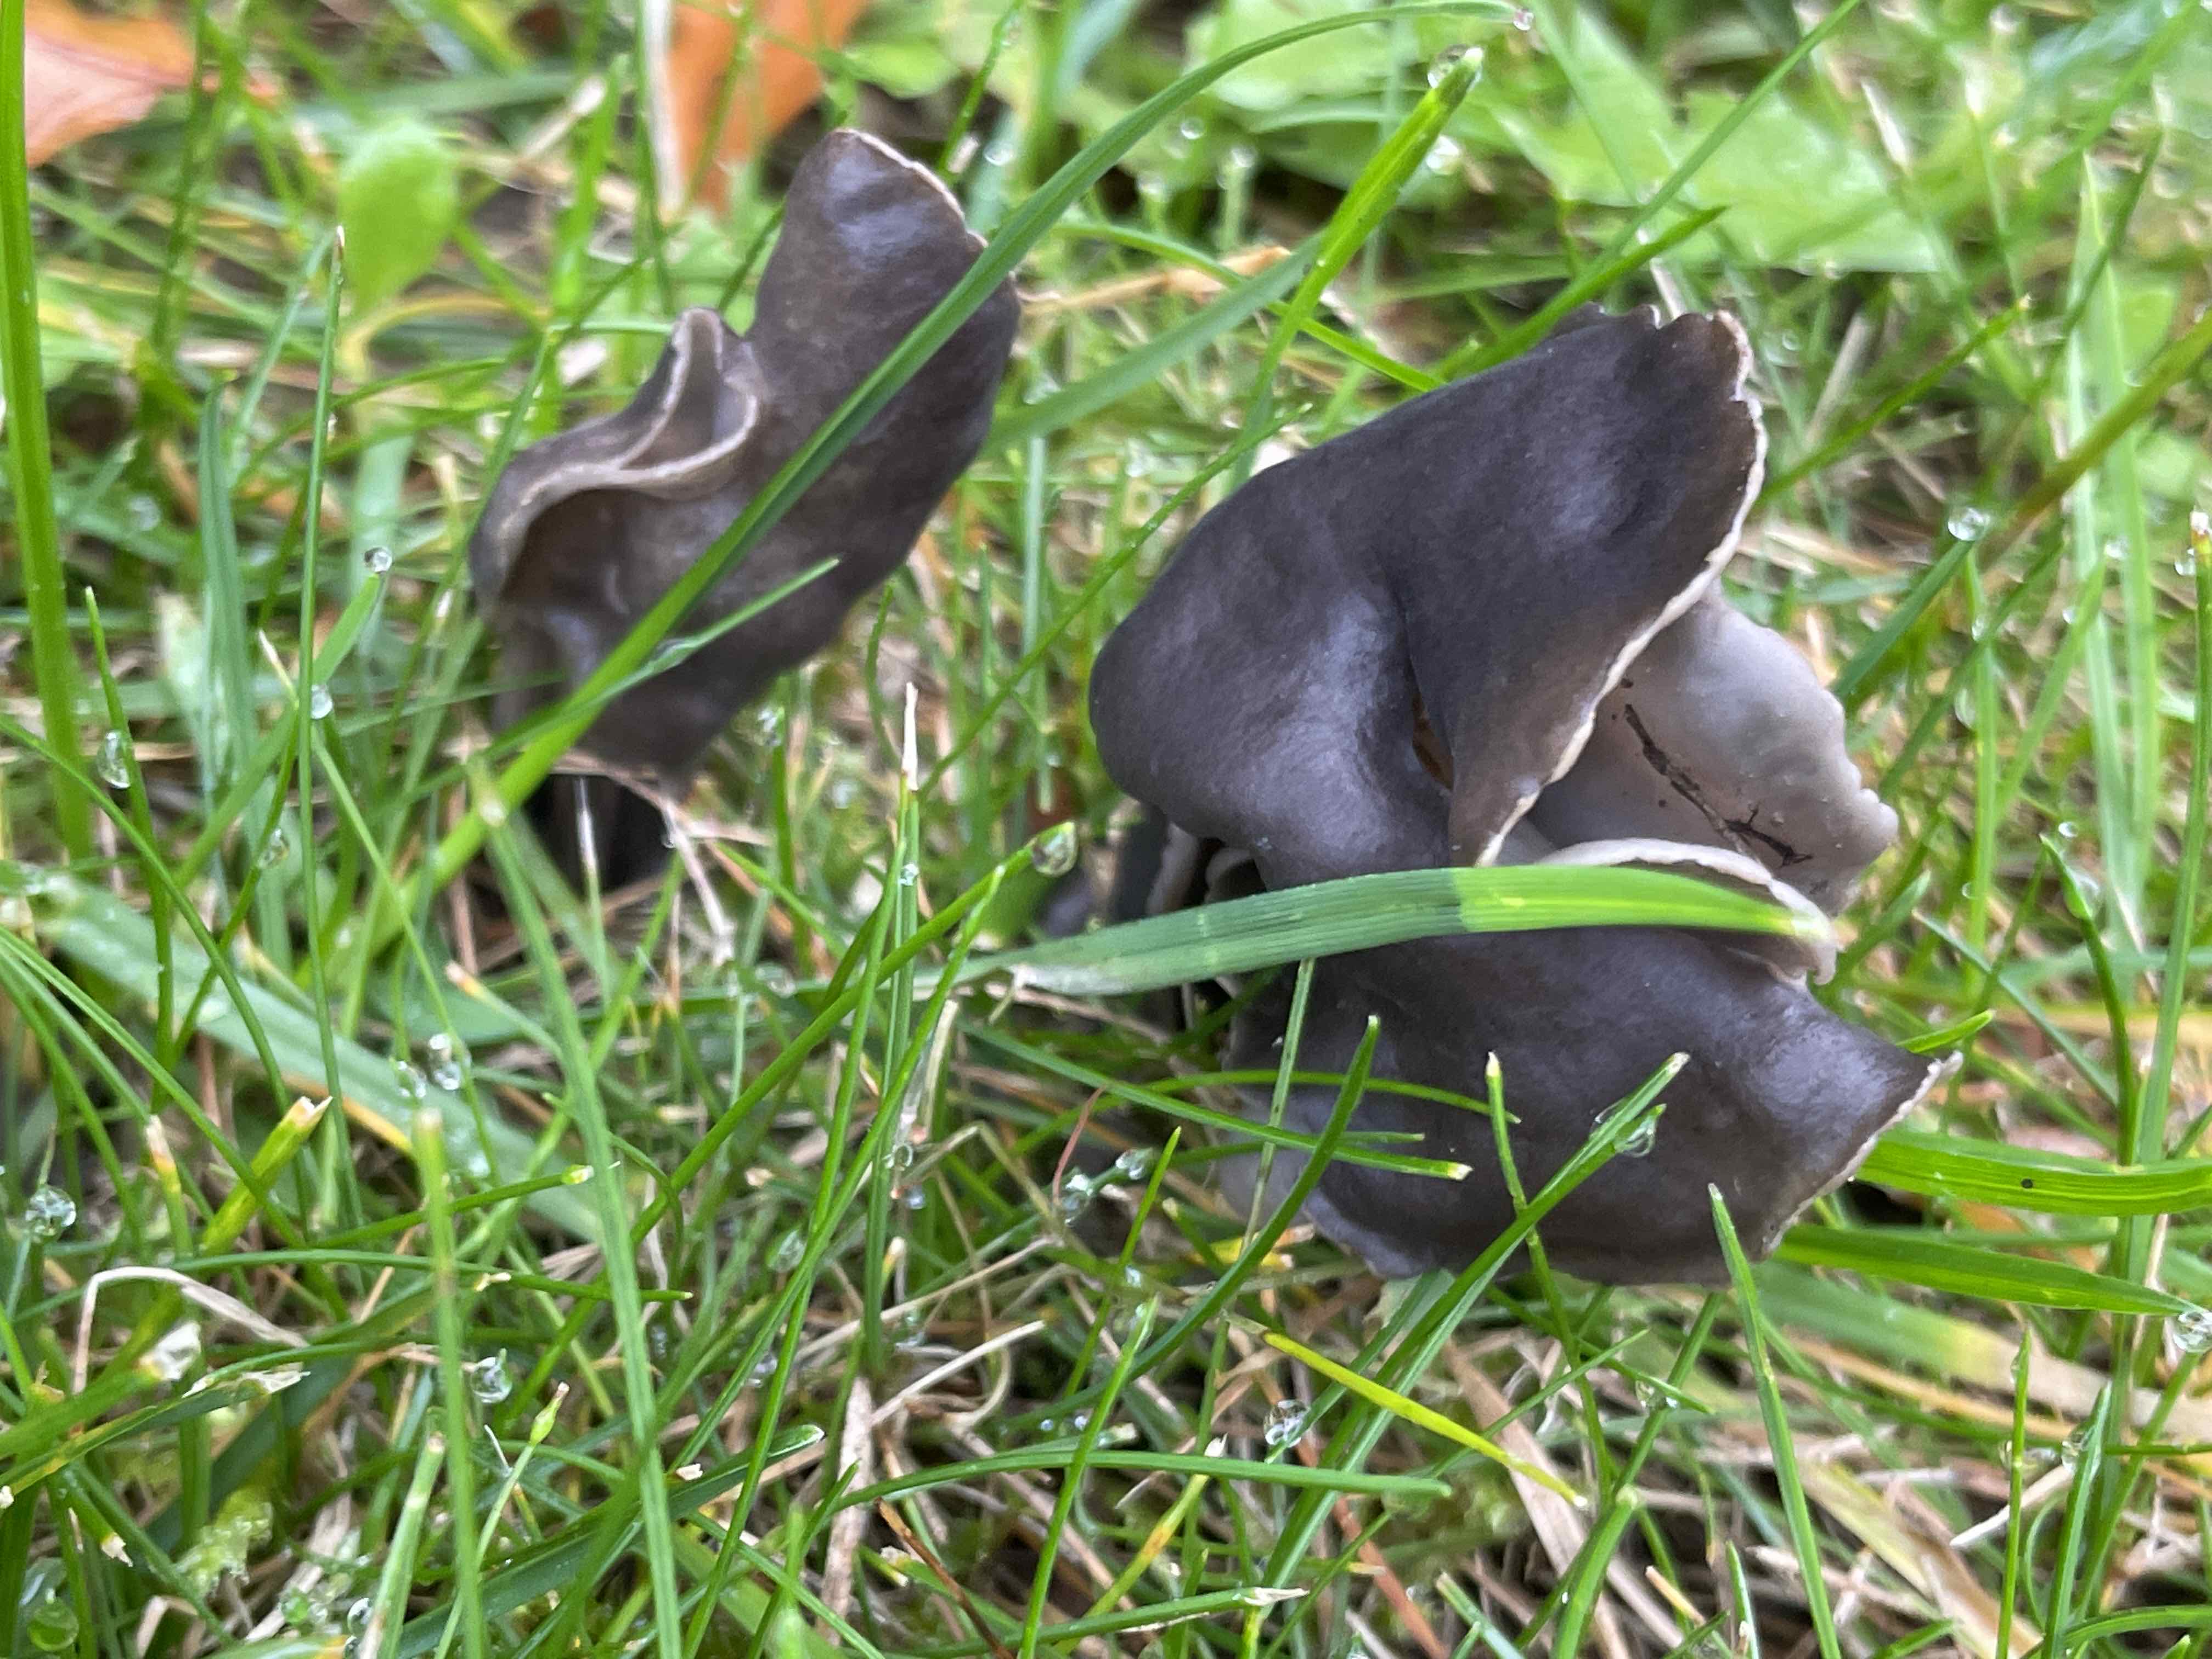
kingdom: Fungi
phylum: Ascomycota
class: Pezizomycetes
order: Pezizales
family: Helvellaceae
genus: Helvella
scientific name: Helvella lacunosa
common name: grubet foldhat
